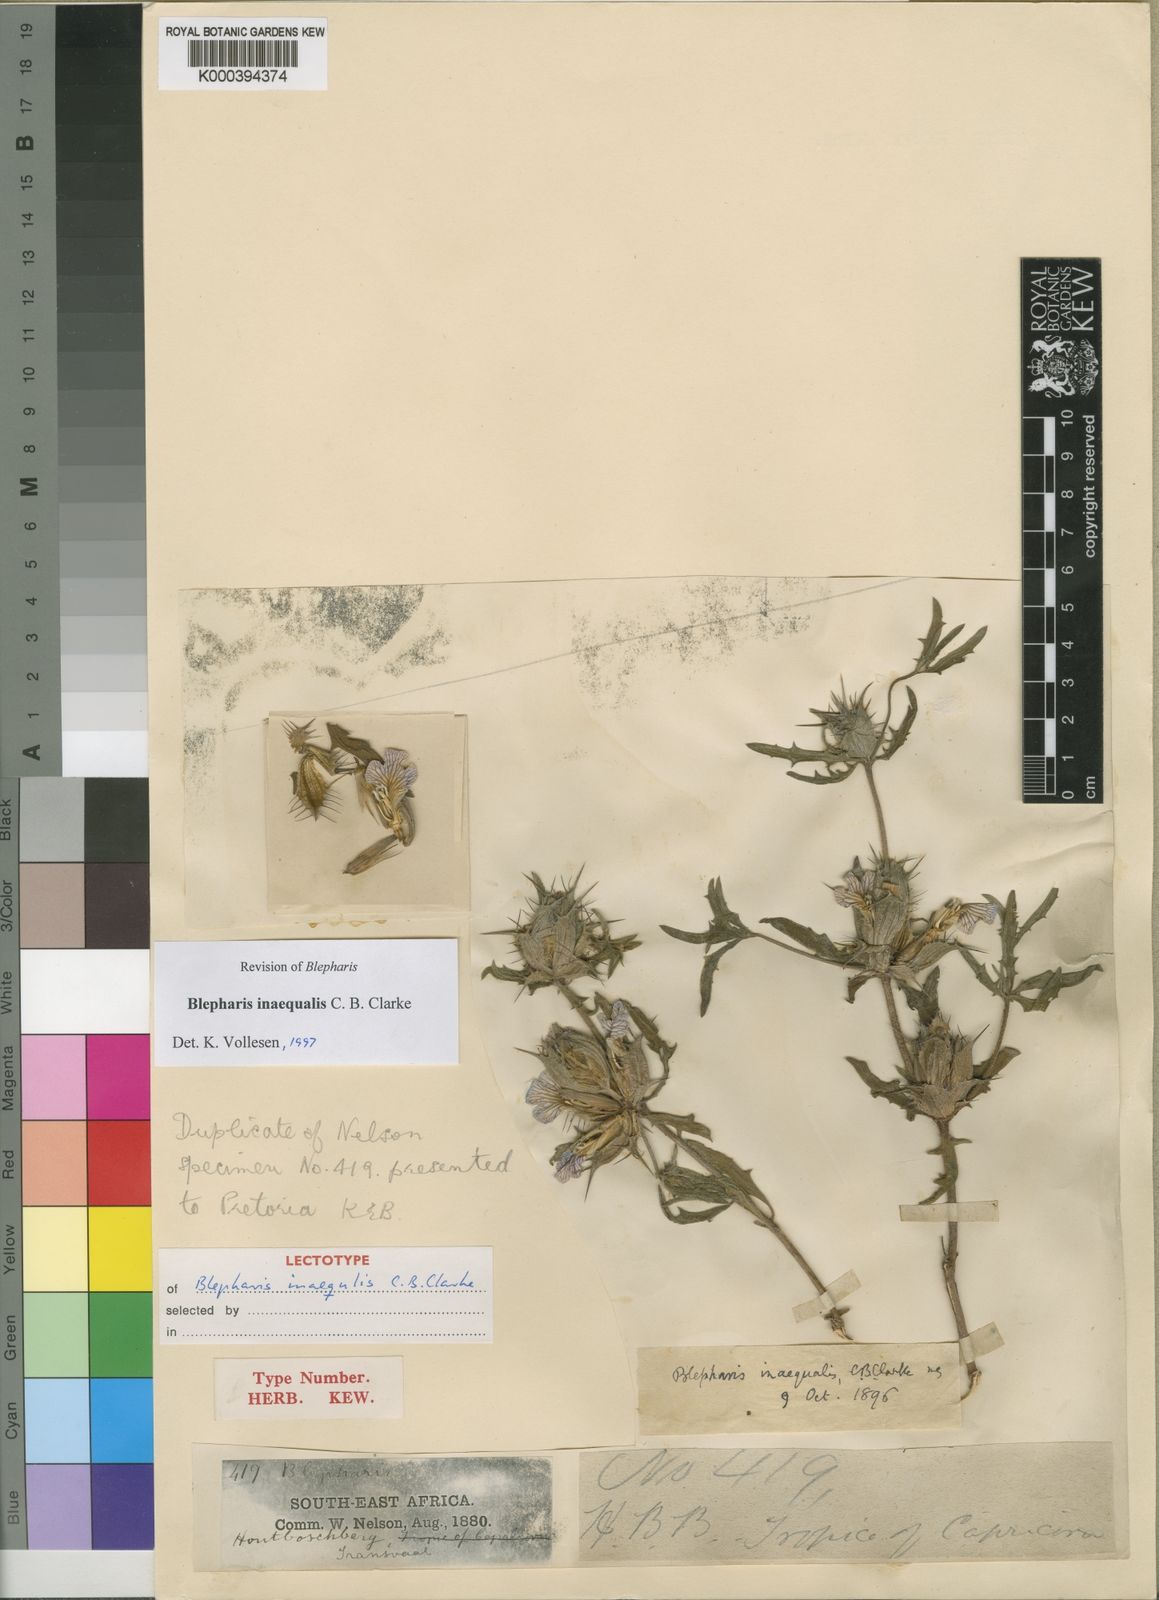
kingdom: Plantae
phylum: Tracheophyta
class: Magnoliopsida
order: Lamiales
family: Acanthaceae
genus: Blepharis
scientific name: Blepharis inaequalis
